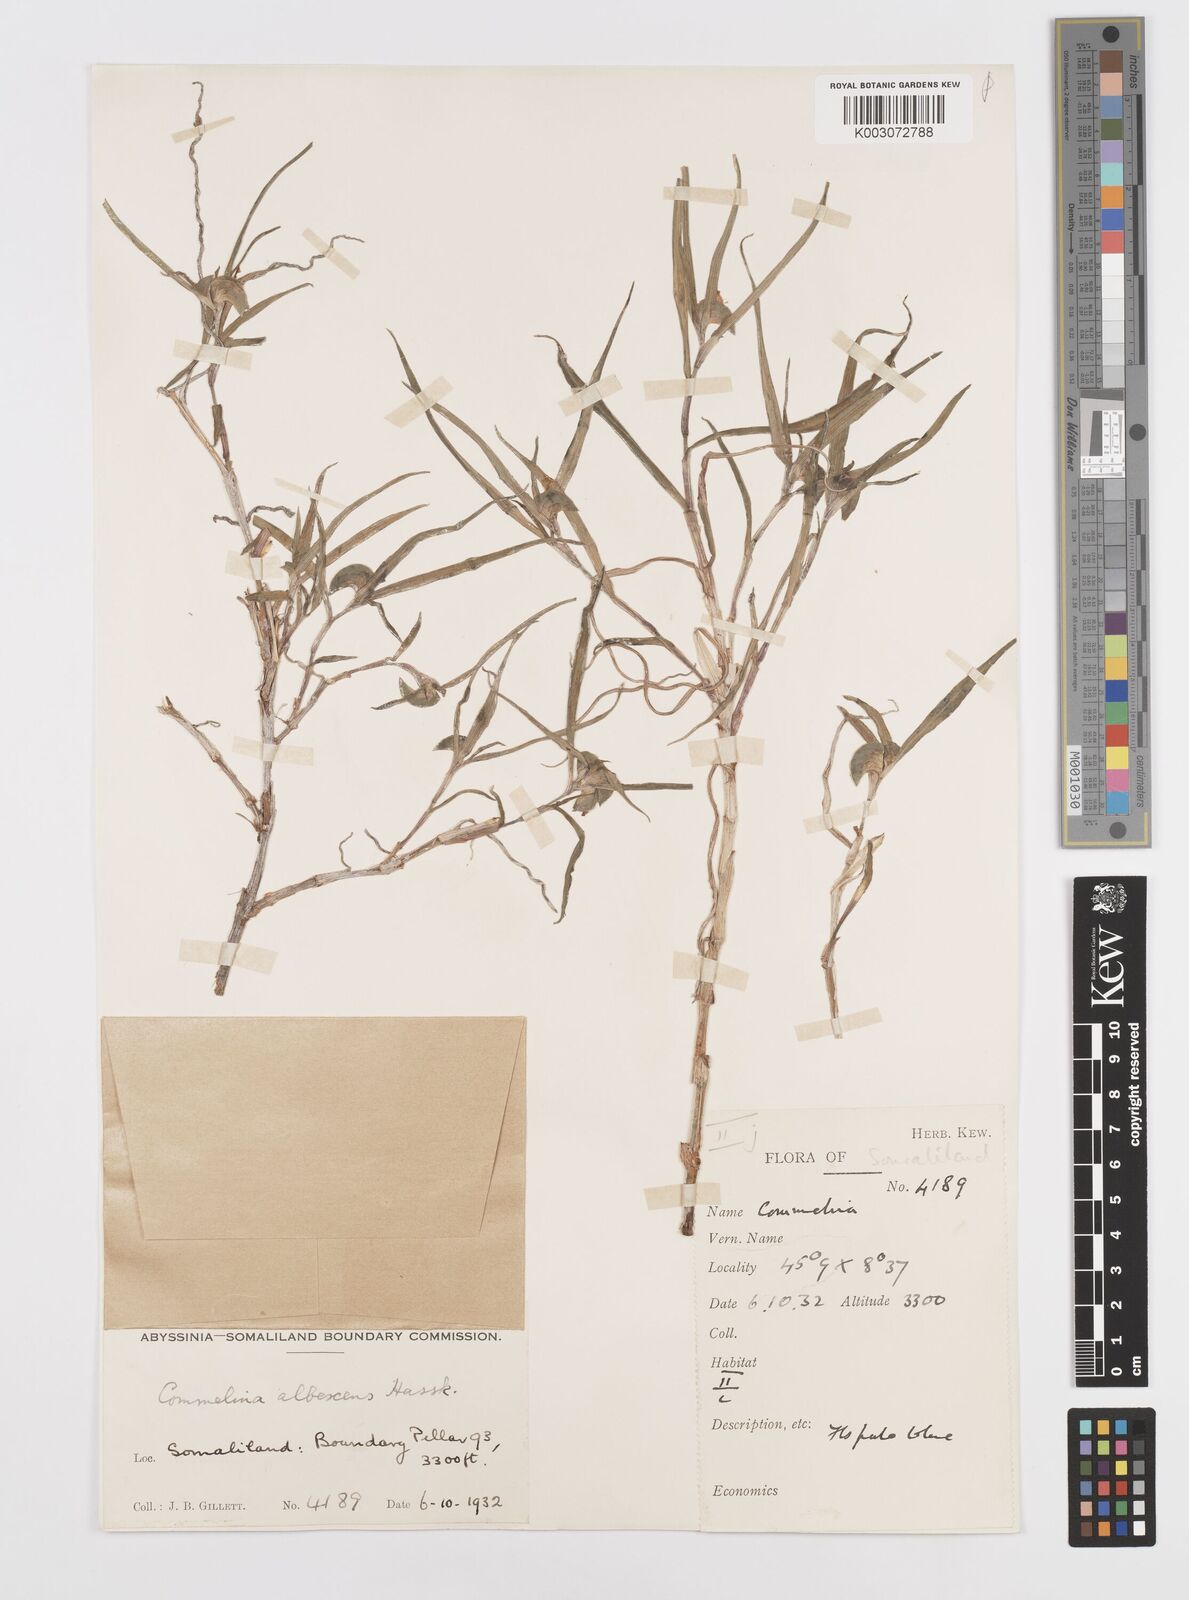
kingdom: Plantae
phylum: Tracheophyta
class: Liliopsida
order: Commelinales
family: Commelinaceae
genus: Commelina
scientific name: Commelina albescens
